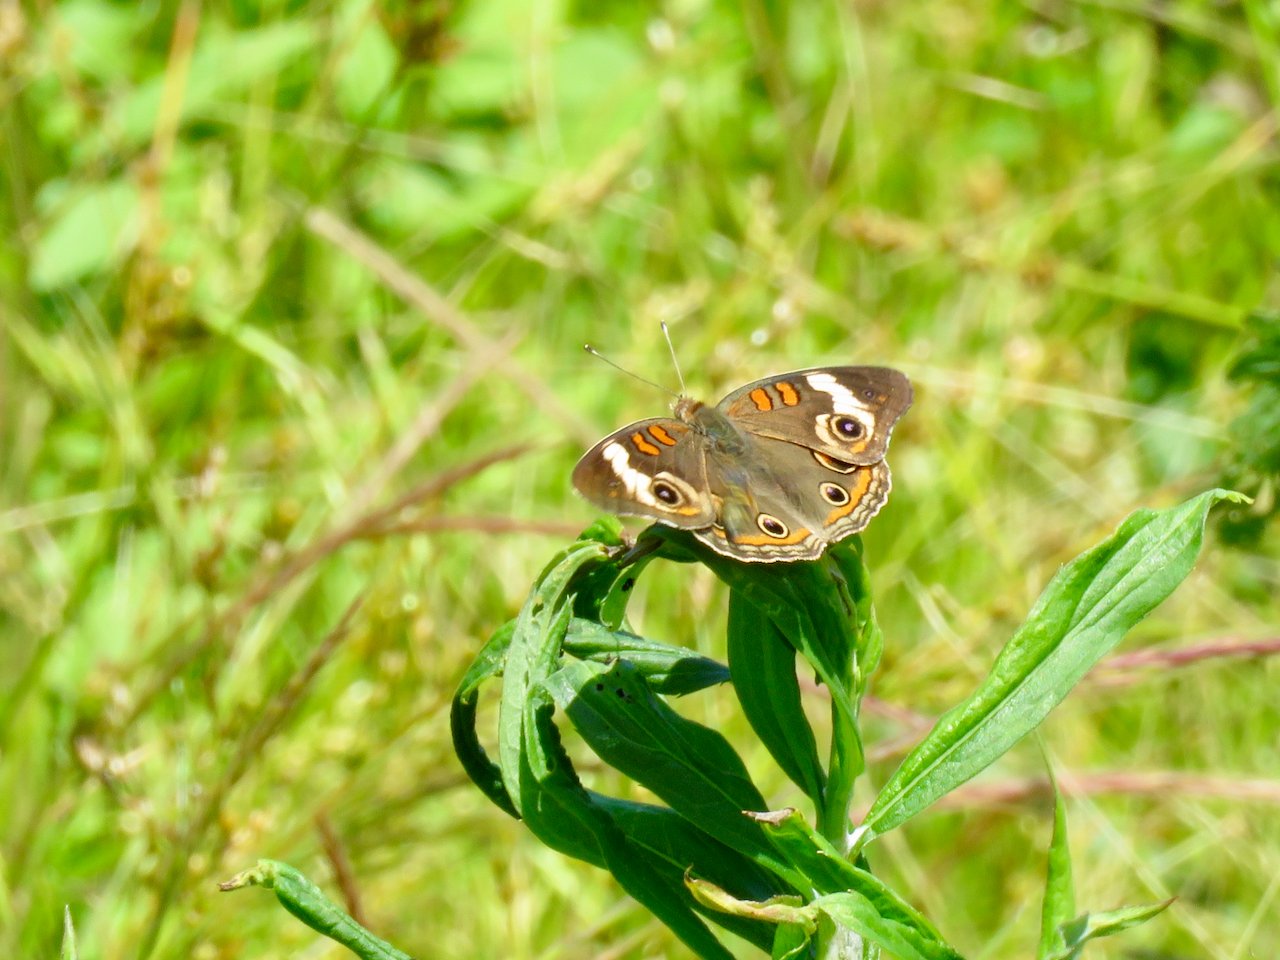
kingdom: Animalia
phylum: Arthropoda
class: Insecta
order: Lepidoptera
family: Nymphalidae
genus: Junonia
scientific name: Junonia coenia
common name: Common Buckeye
